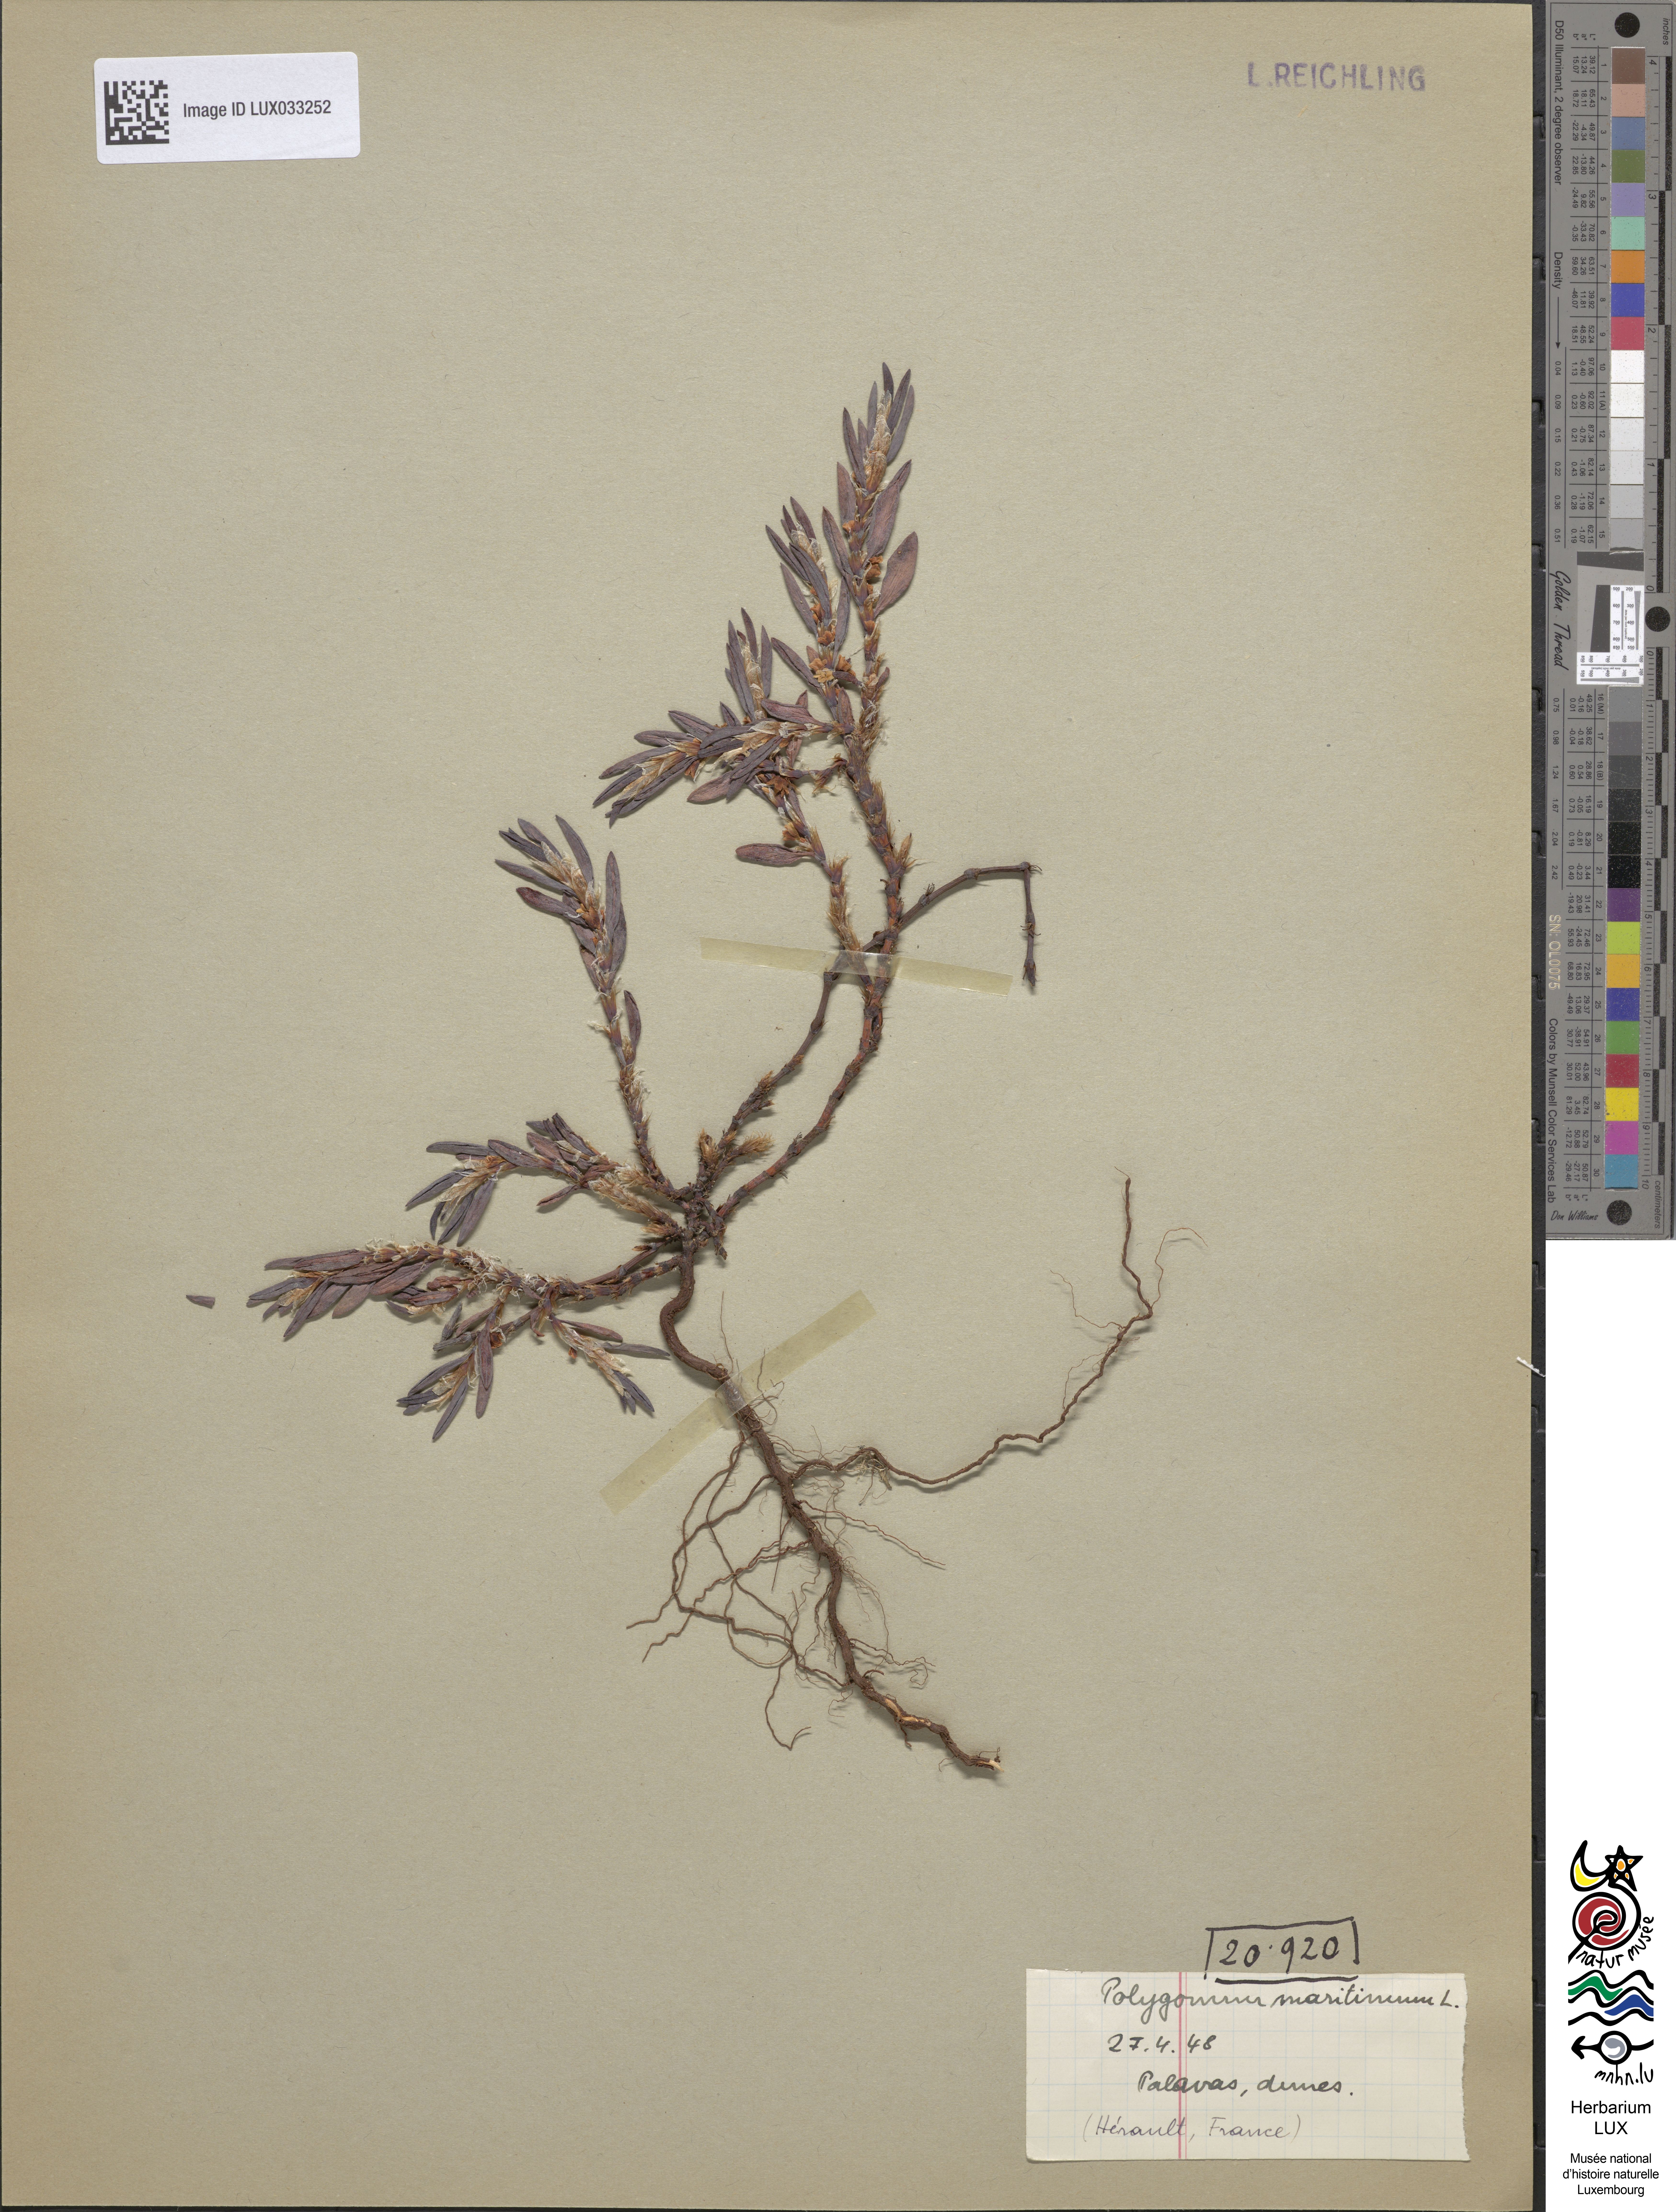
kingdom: Plantae
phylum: Tracheophyta
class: Magnoliopsida
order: Caryophyllales
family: Polygonaceae
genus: Polygonum
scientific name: Polygonum maritimum
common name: Sea knotgrass
